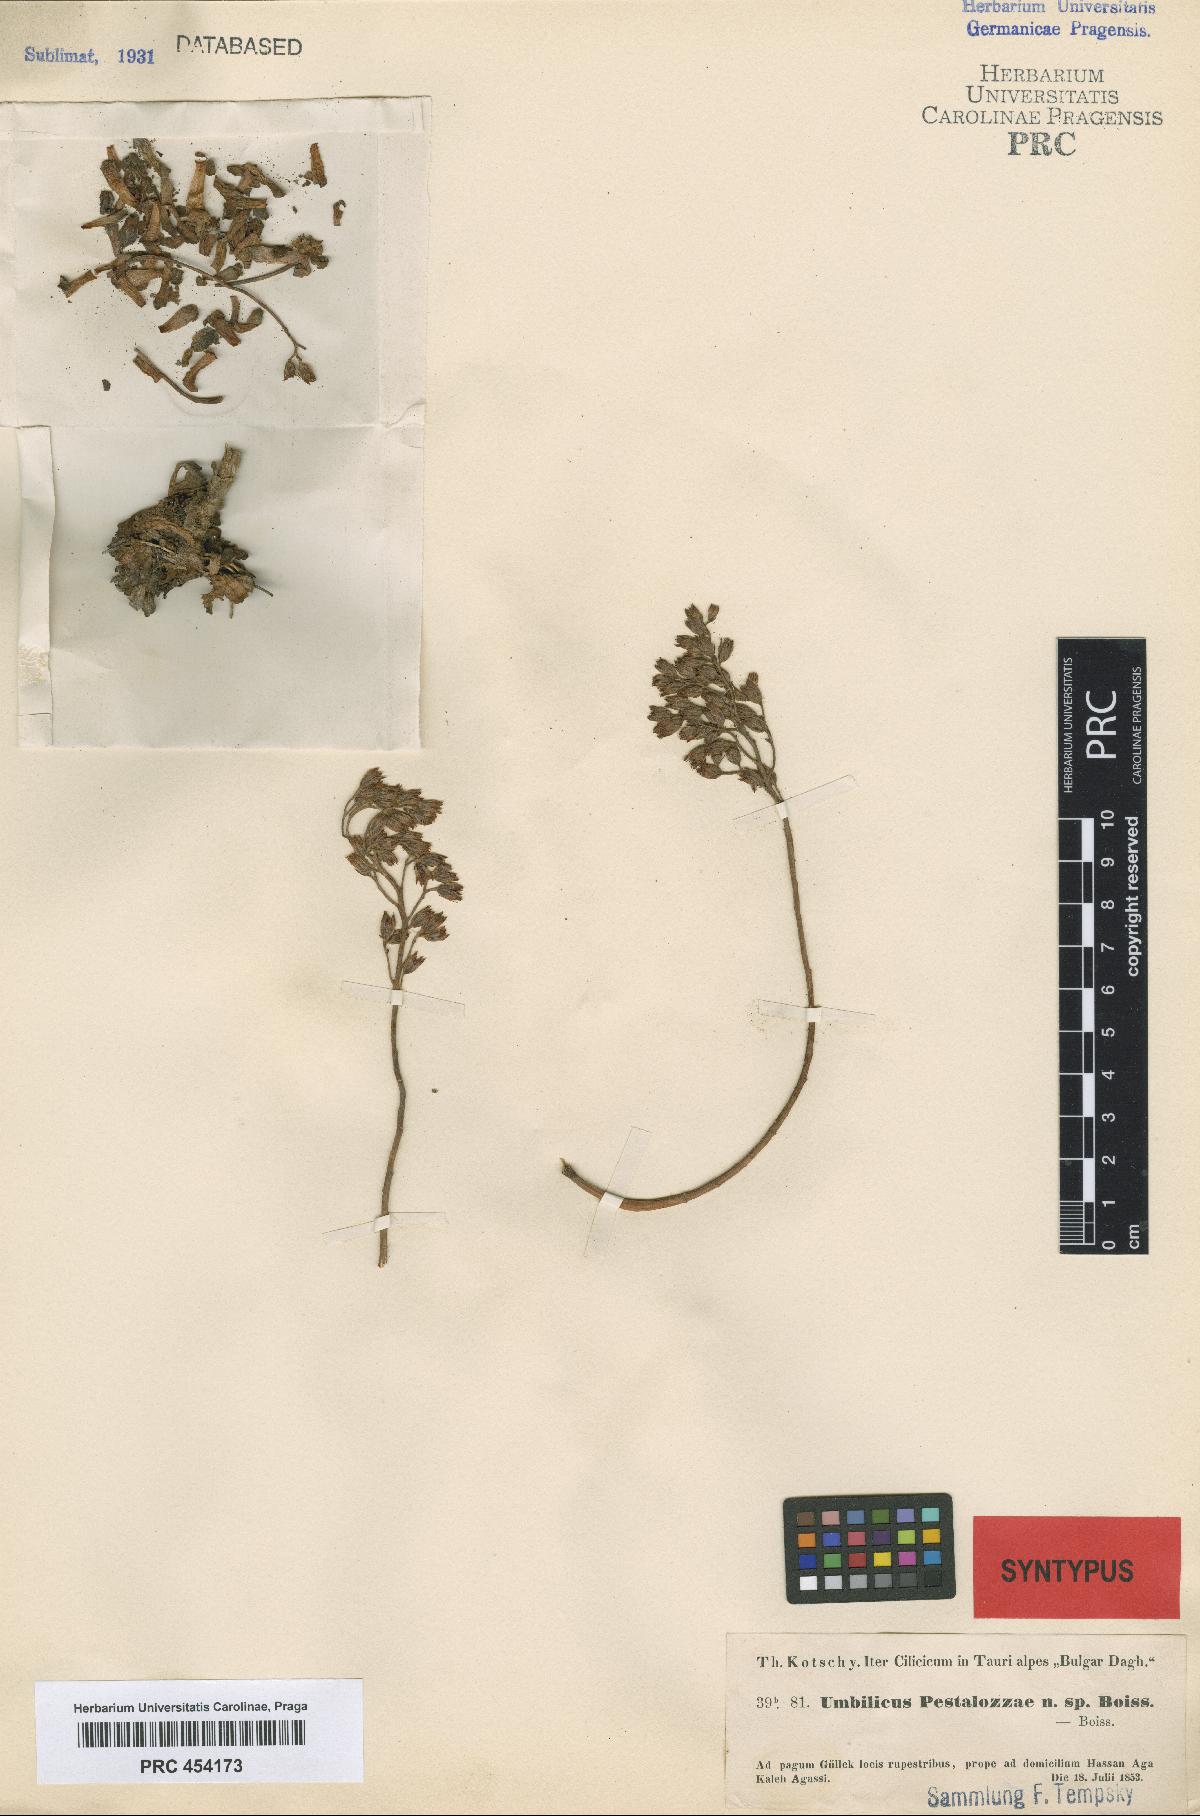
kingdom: Plantae
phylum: Tracheophyta
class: Magnoliopsida
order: Saxifragales
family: Crassulaceae
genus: Rosularia
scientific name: Rosularia sempervivum
